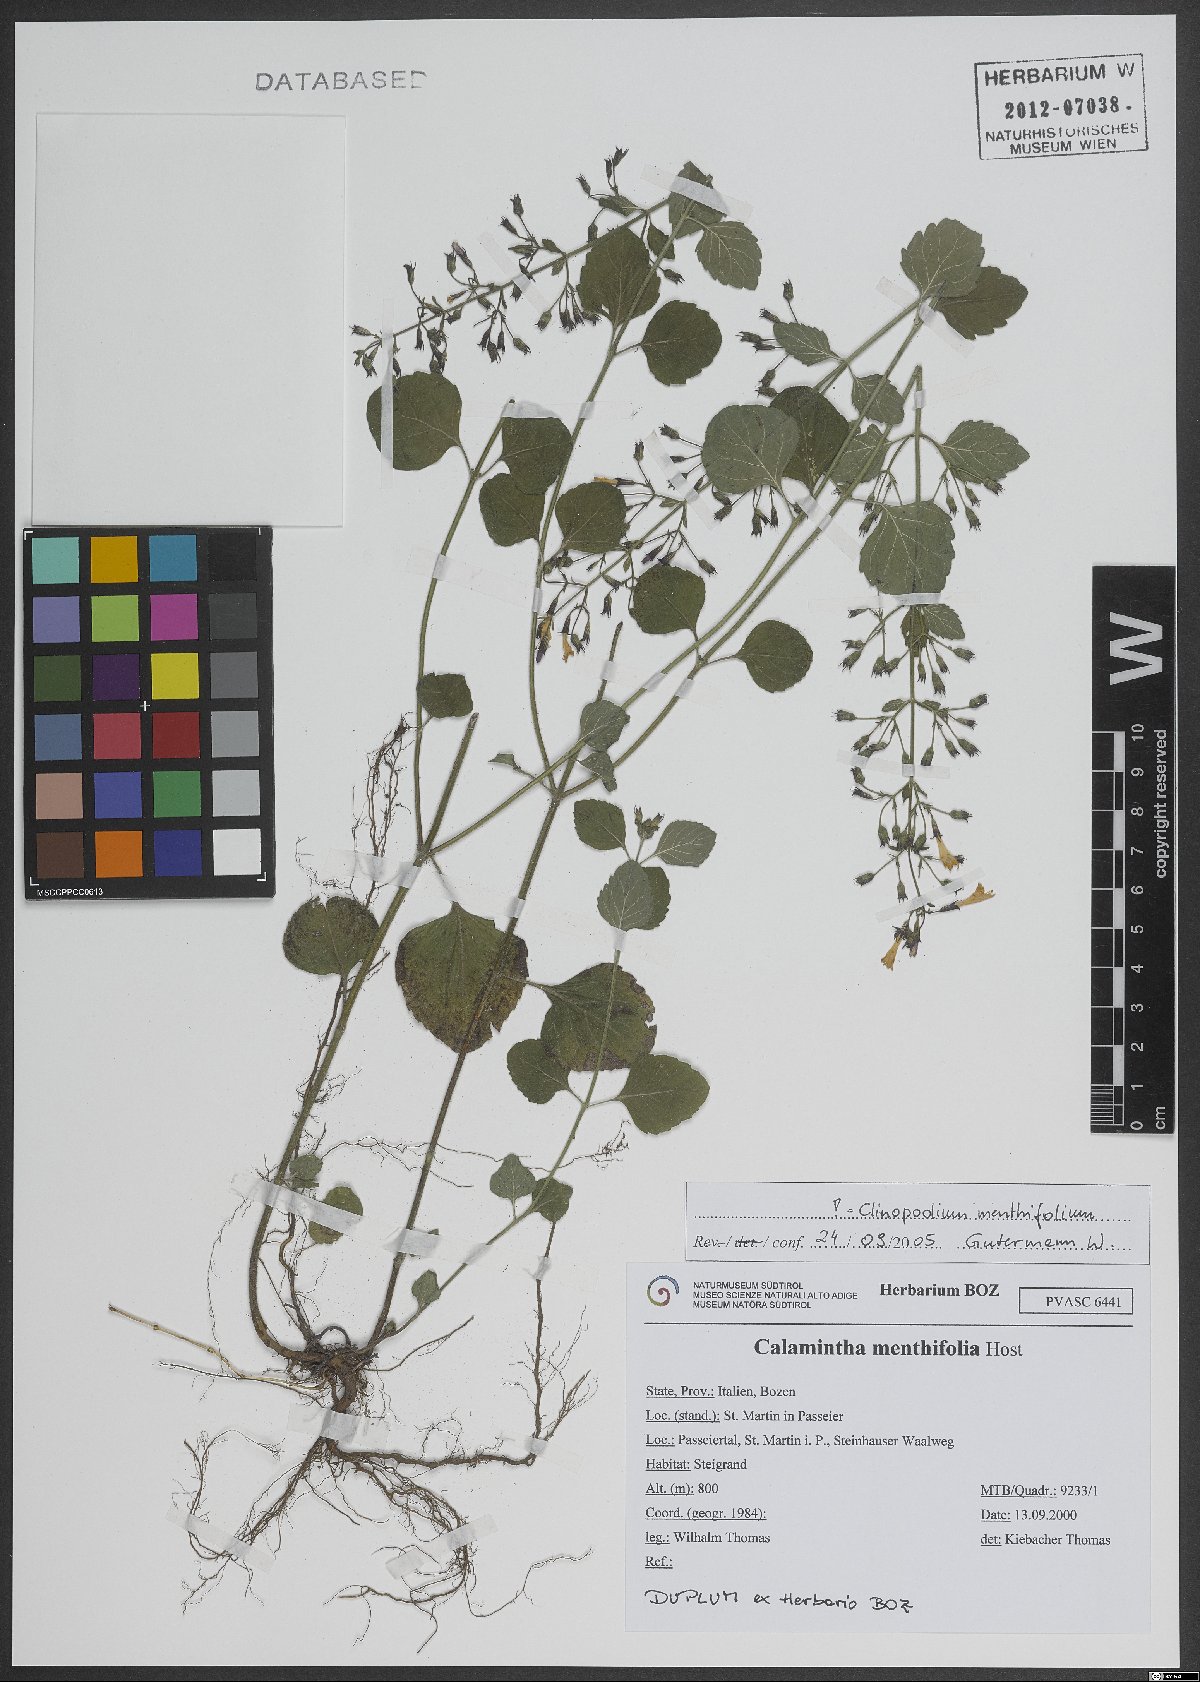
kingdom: Plantae
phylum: Tracheophyta
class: Magnoliopsida
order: Lamiales
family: Lamiaceae
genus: Clinopodium
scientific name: Clinopodium menthifolium
